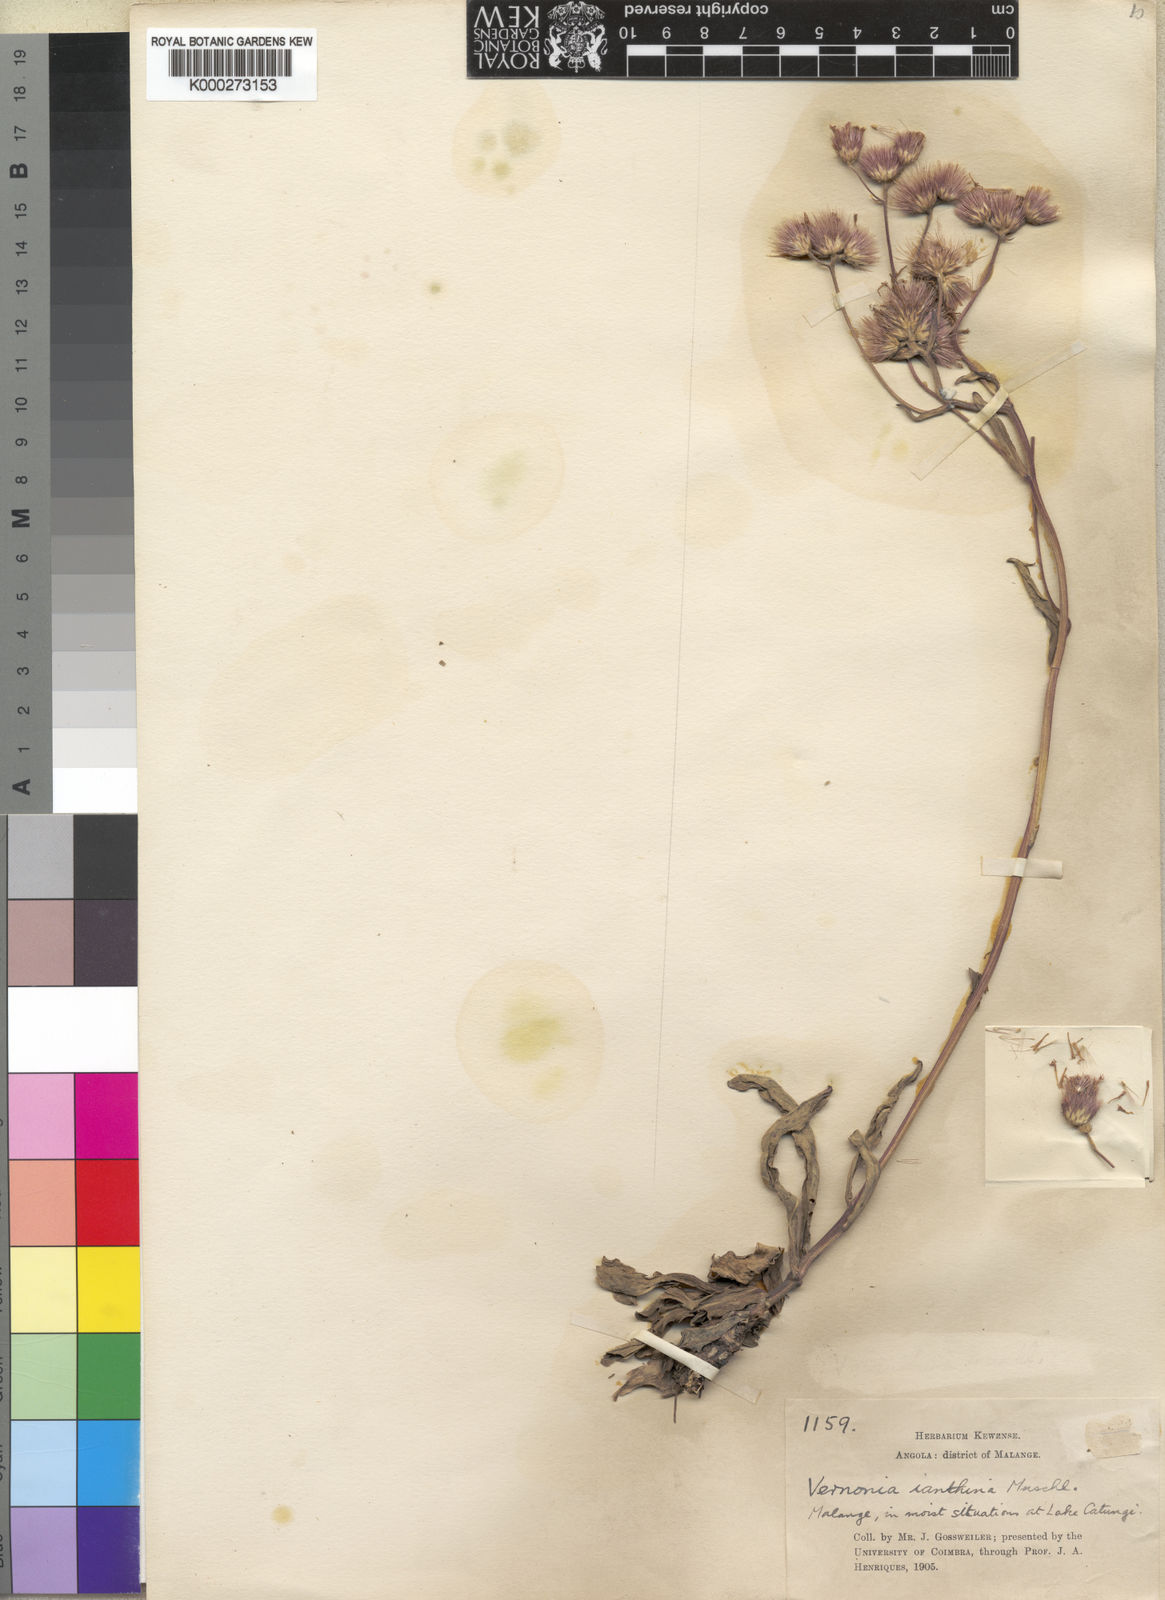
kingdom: Plantae
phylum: Tracheophyta
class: Magnoliopsida
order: Asterales
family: Asteraceae
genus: Vernonia
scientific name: Vernonia ianthina
